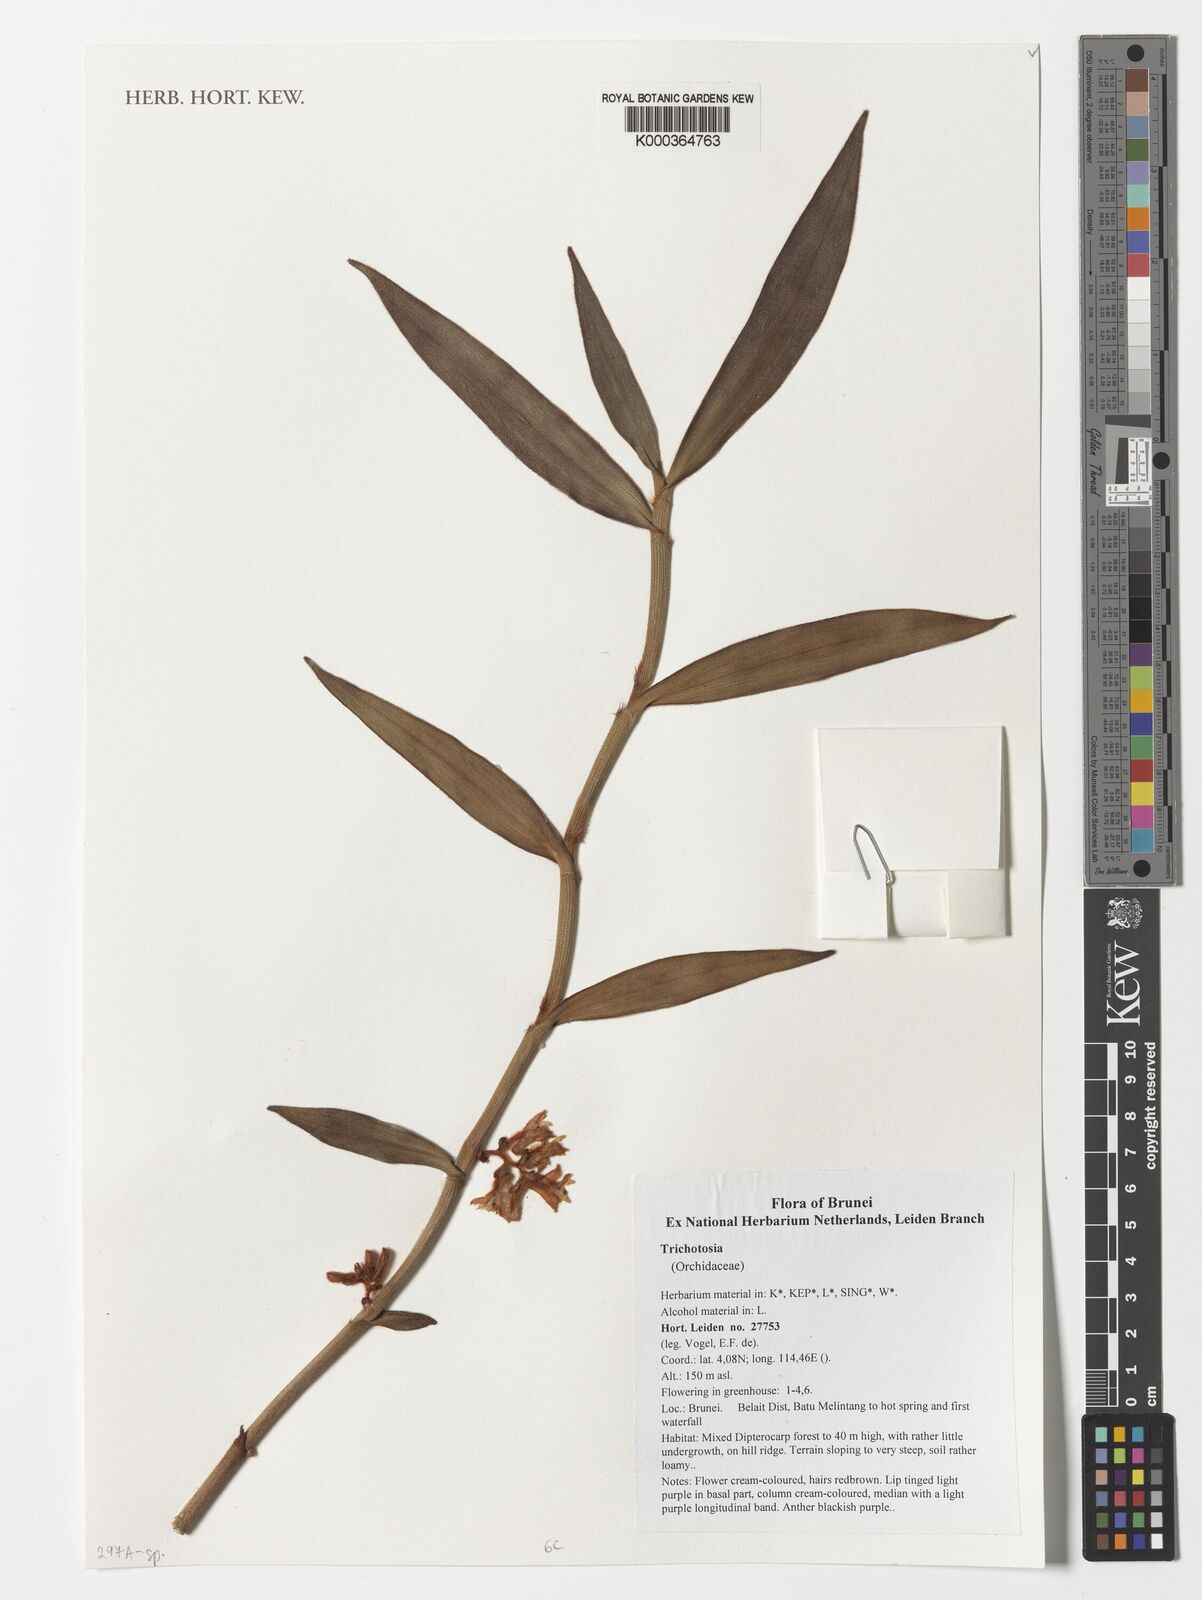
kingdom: Plantae
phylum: Tracheophyta
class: Liliopsida
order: Asparagales
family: Orchidaceae
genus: Trichotosia
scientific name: Trichotosia
